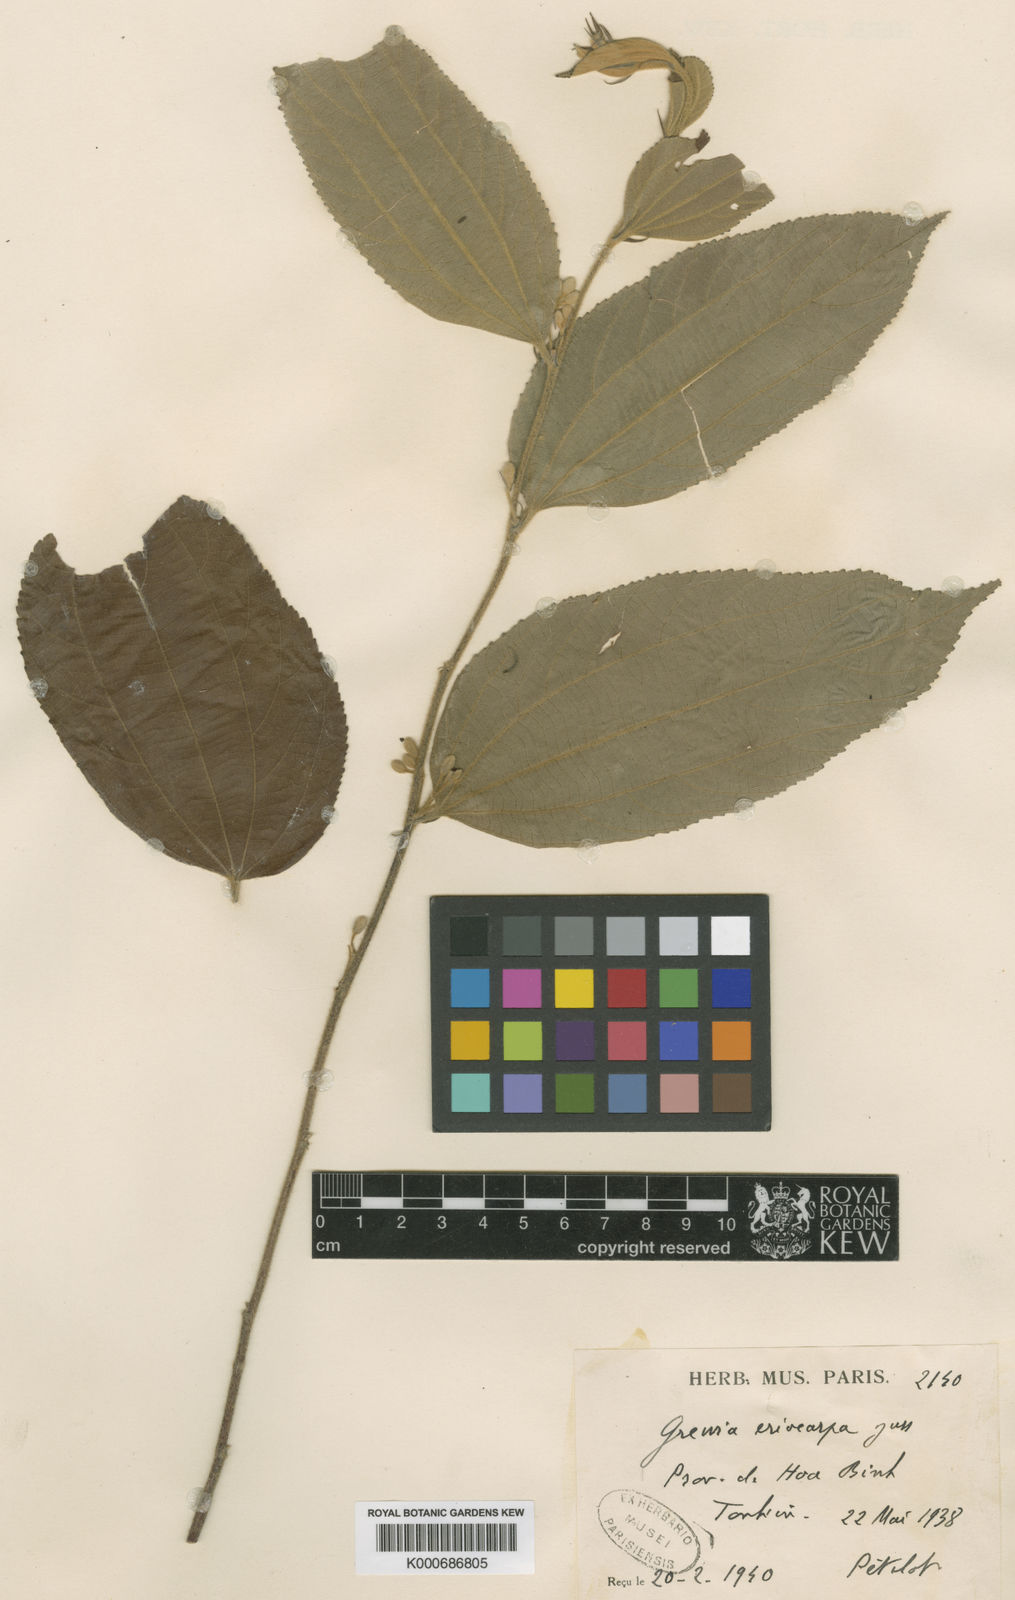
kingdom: Plantae
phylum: Tracheophyta
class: Magnoliopsida
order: Malvales
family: Malvaceae
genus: Grewia
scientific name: Grewia eriocarpa
